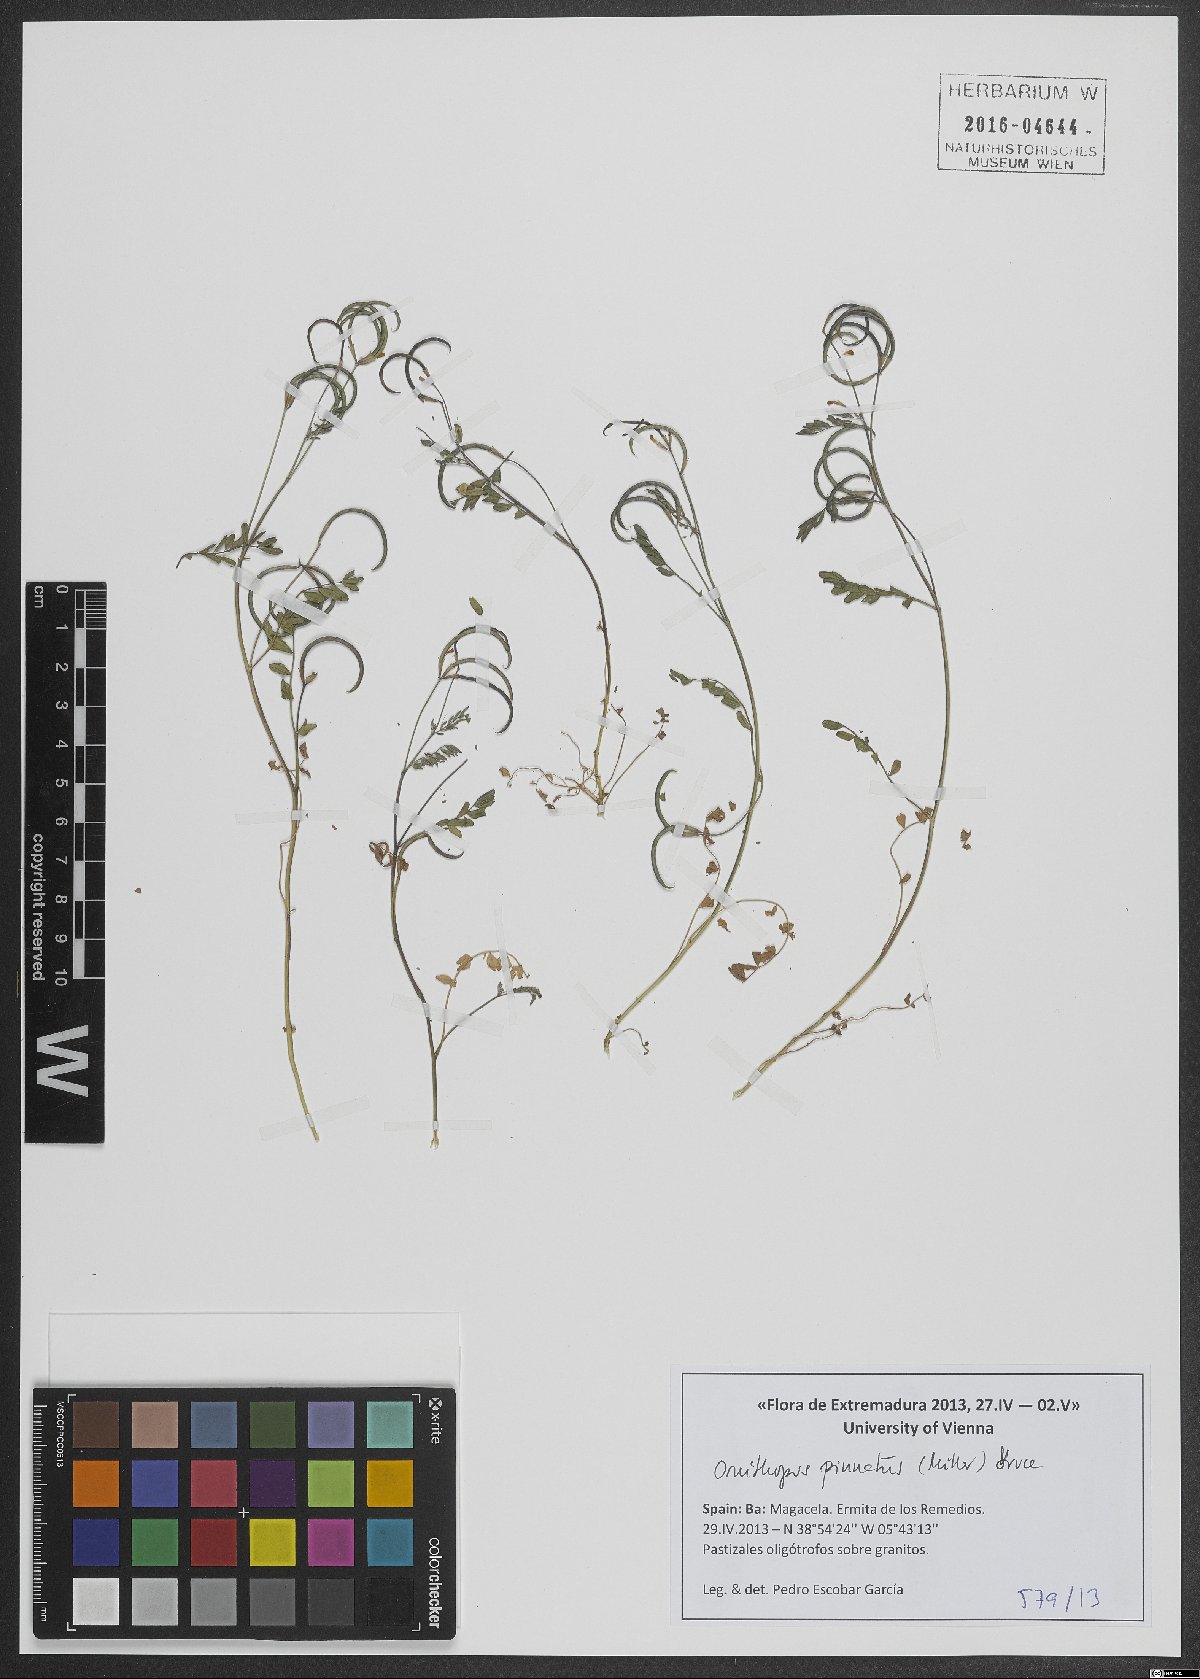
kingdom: Plantae
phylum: Tracheophyta
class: Magnoliopsida
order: Fabales
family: Fabaceae
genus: Ornithopus
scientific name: Ornithopus pinnatus
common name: Orange bird's-foot
